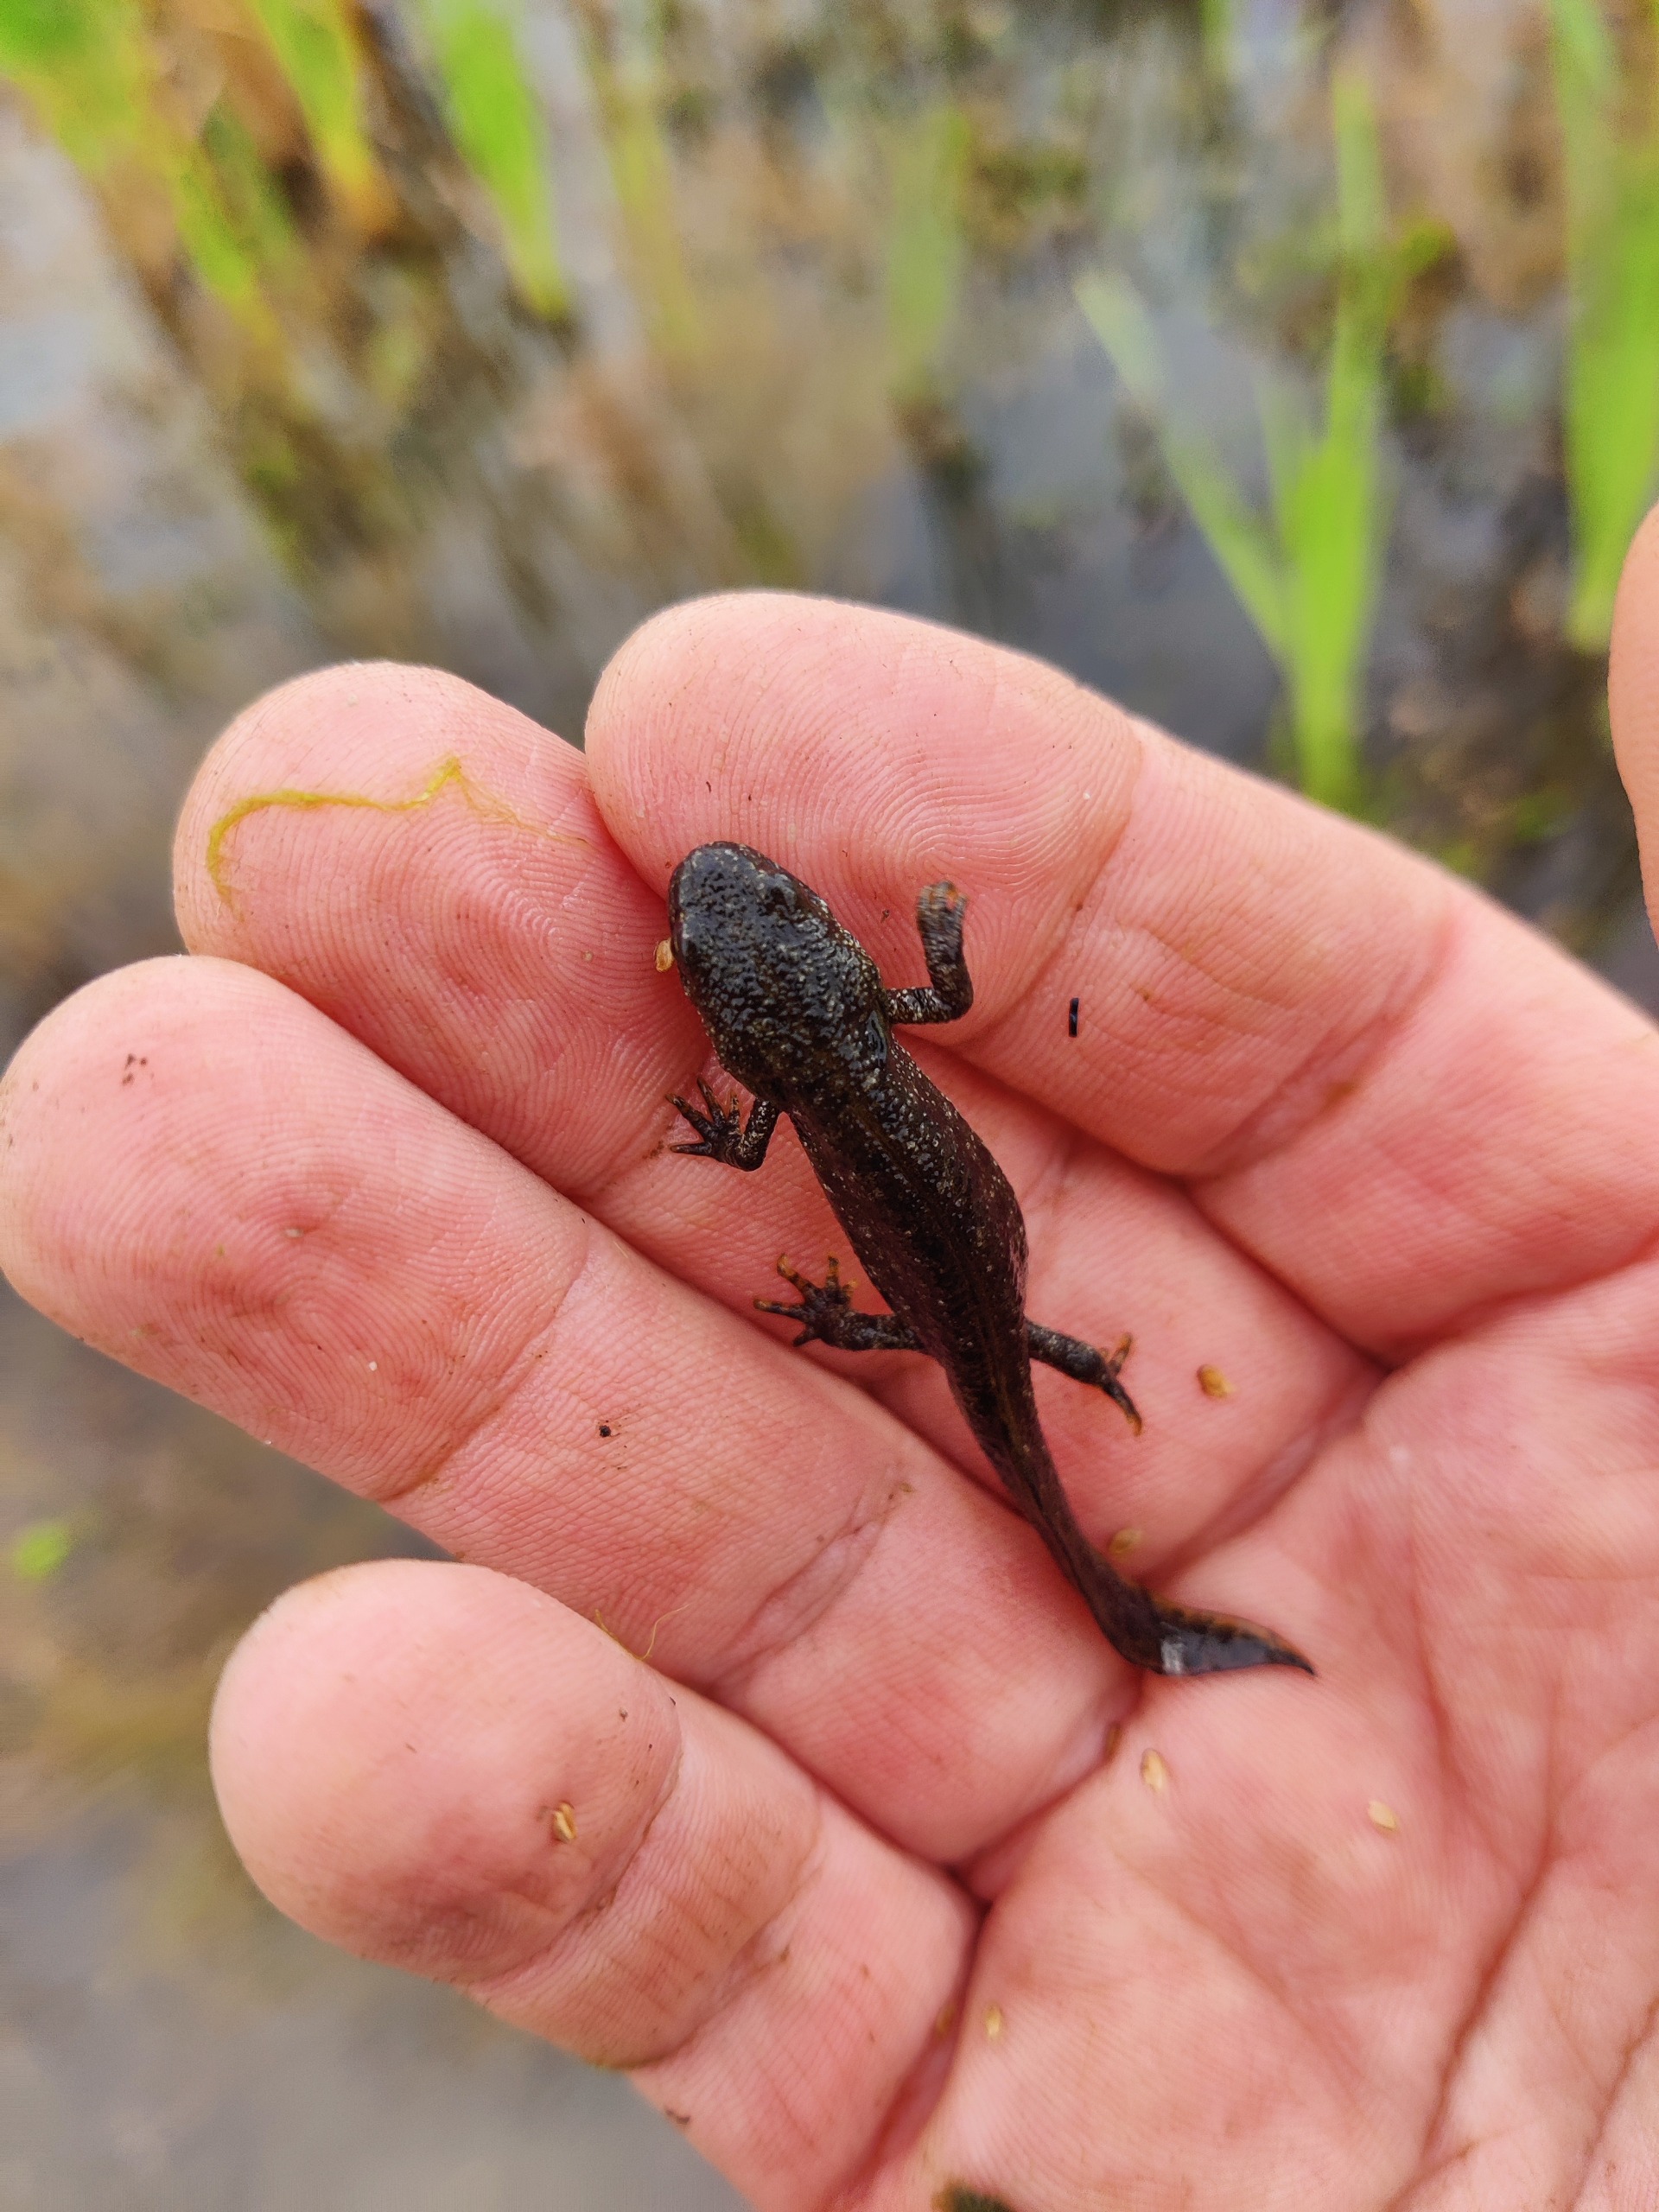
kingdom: Animalia
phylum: Chordata
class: Amphibia
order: Caudata
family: Salamandridae
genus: Triturus
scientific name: Triturus cristatus
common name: Stor vandsalamander
